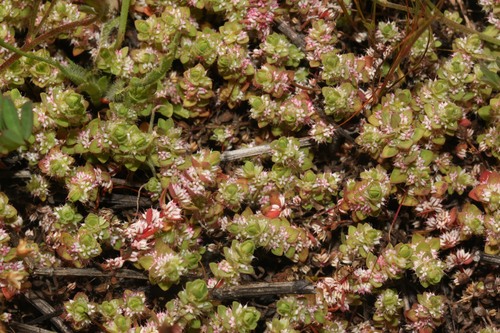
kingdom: Plantae
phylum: Tracheophyta
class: Magnoliopsida
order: Caryophyllales
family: Caryophyllaceae
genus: Illecebrum
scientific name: Illecebrum verticillatum
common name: Coral necklace
